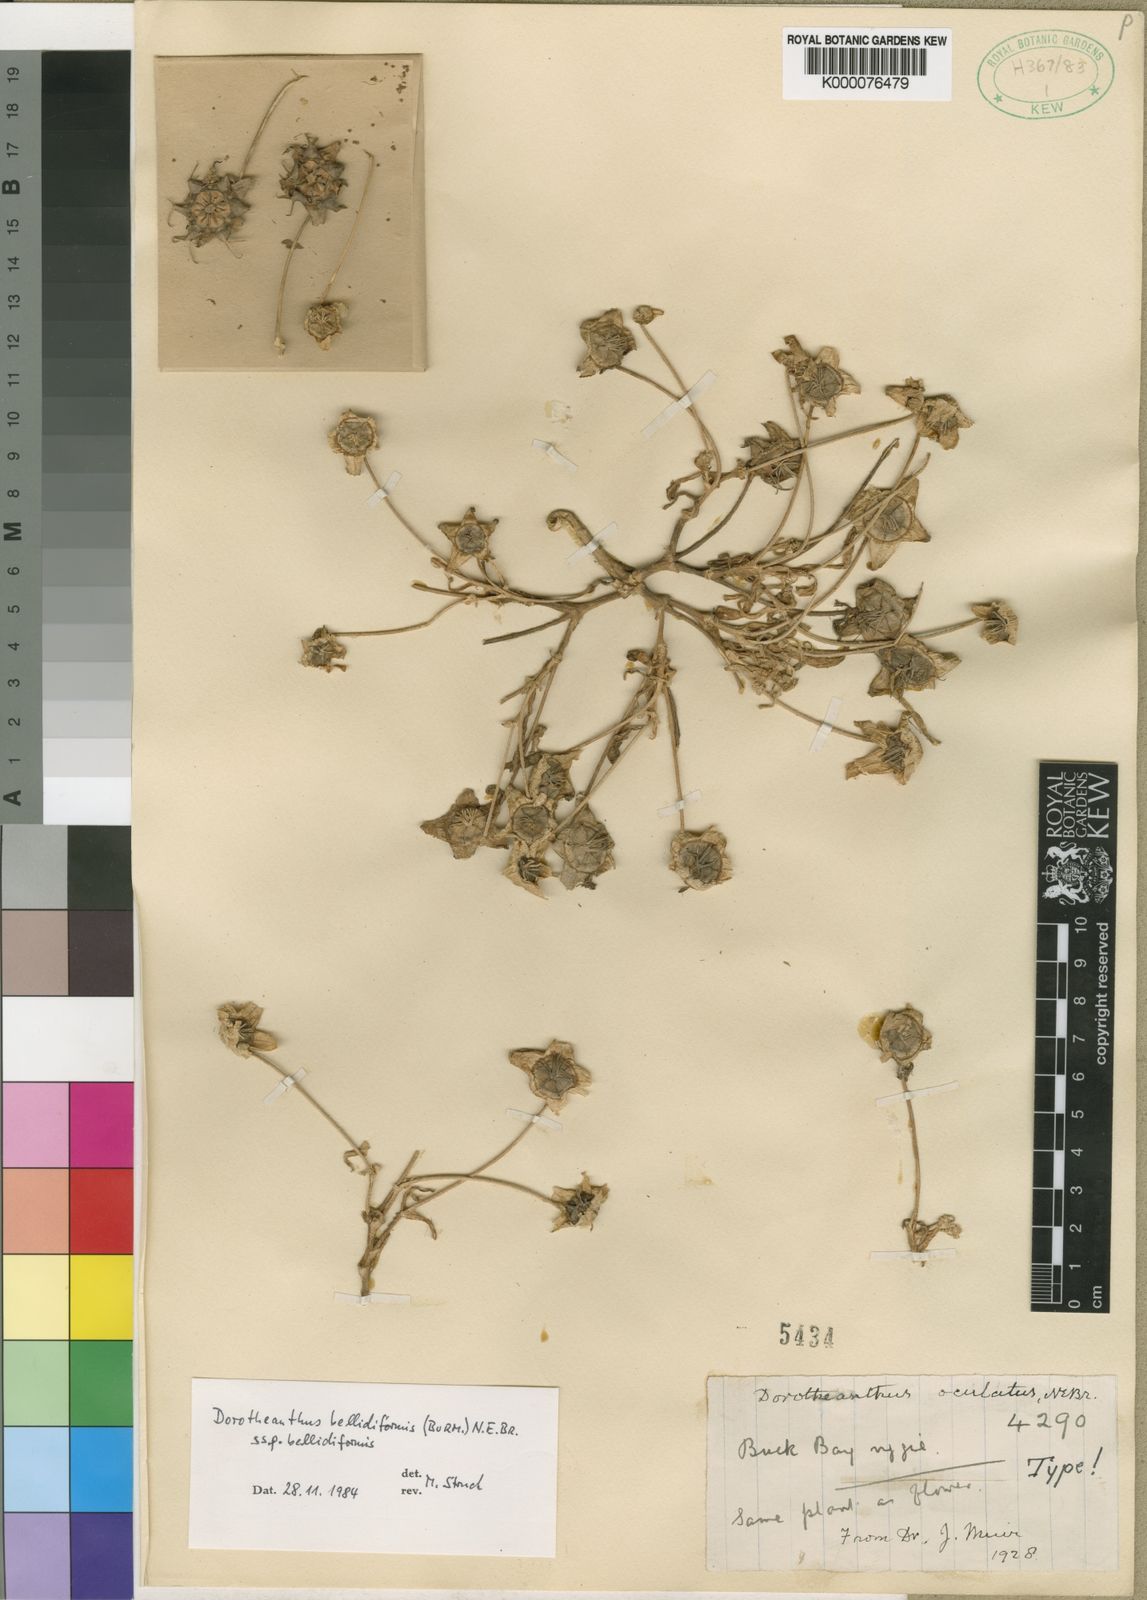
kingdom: Plantae
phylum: Tracheophyta
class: Magnoliopsida
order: Caryophyllales
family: Aizoaceae
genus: Cleretum
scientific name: Cleretum bellidiforme
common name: Livingstone daisy
